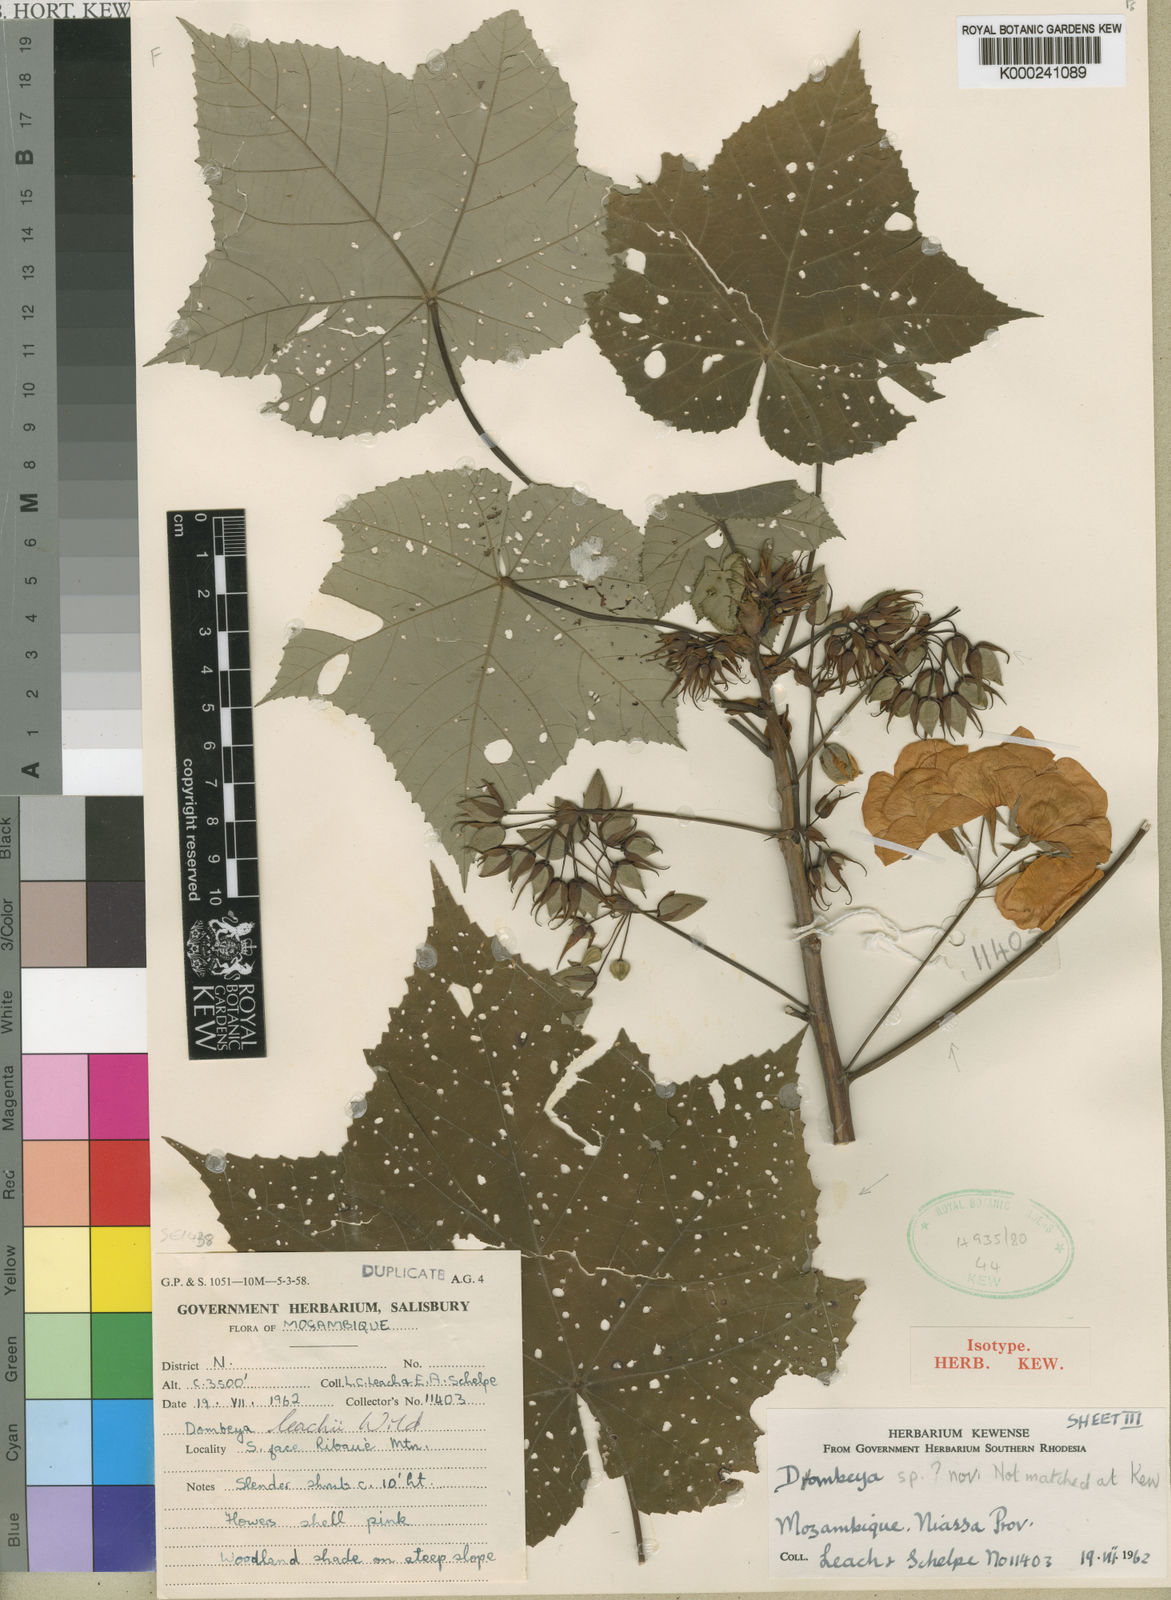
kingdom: Plantae
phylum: Tracheophyta
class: Magnoliopsida
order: Malvales
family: Malvaceae
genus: Dombeya
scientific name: Dombeya leachii
